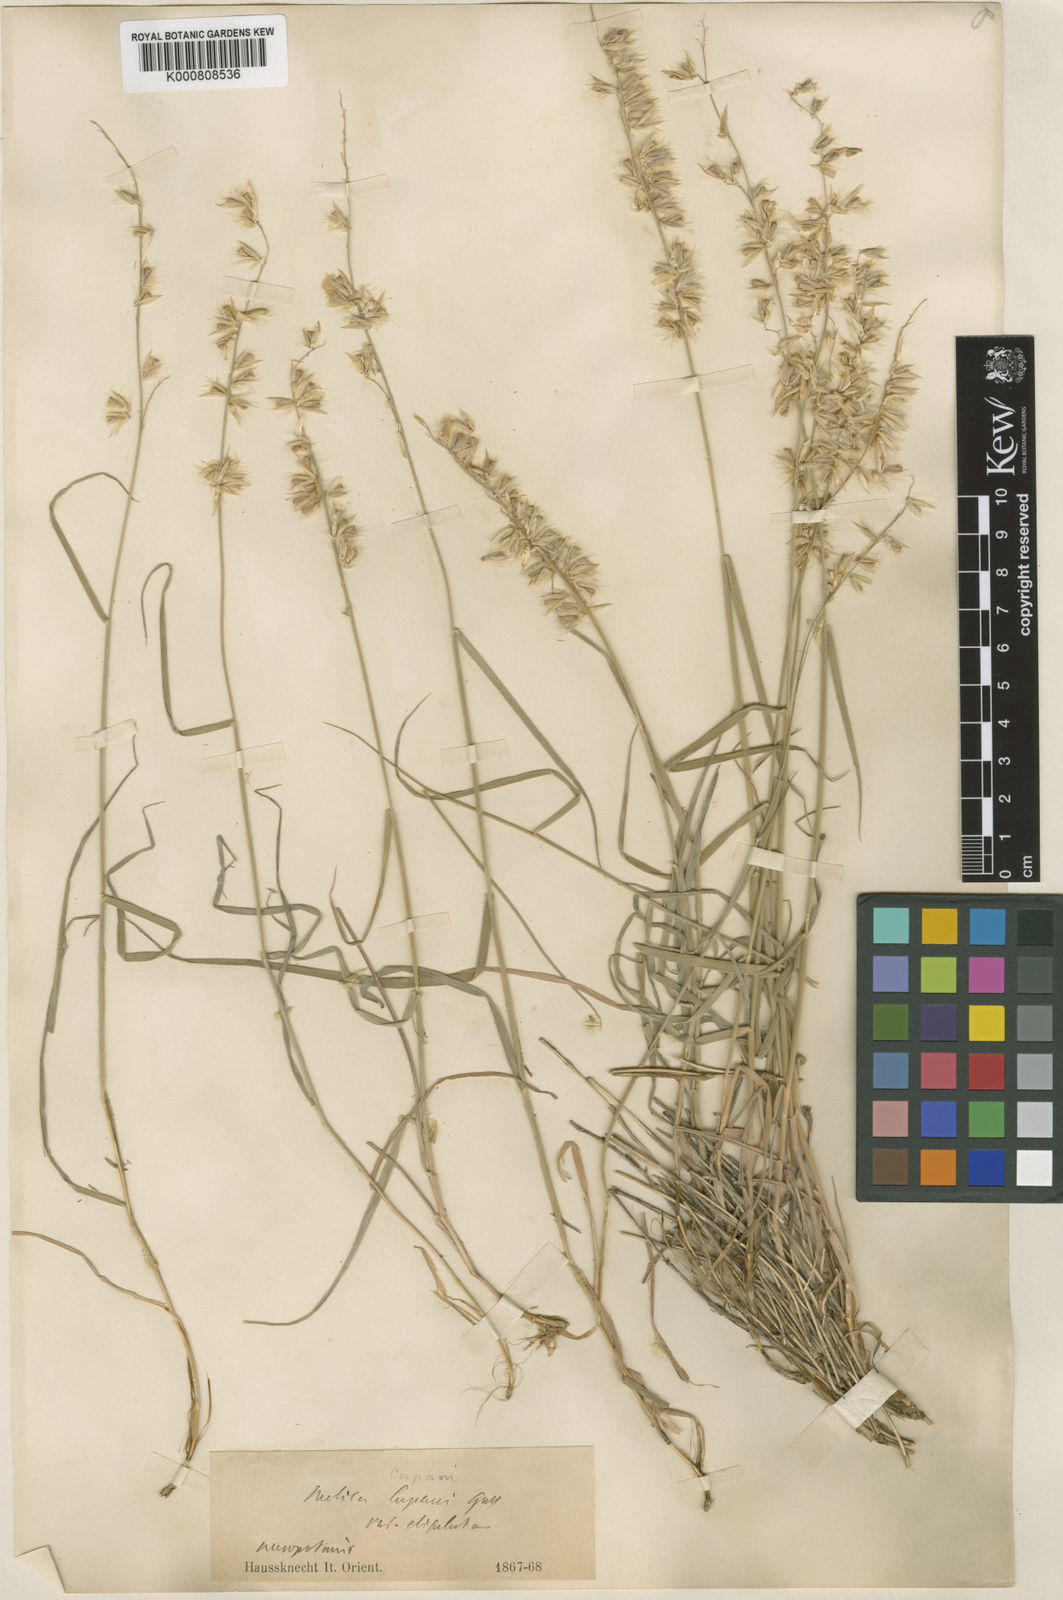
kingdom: Plantae
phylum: Tracheophyta
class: Liliopsida
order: Poales
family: Poaceae
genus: Melica
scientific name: Melica persica
